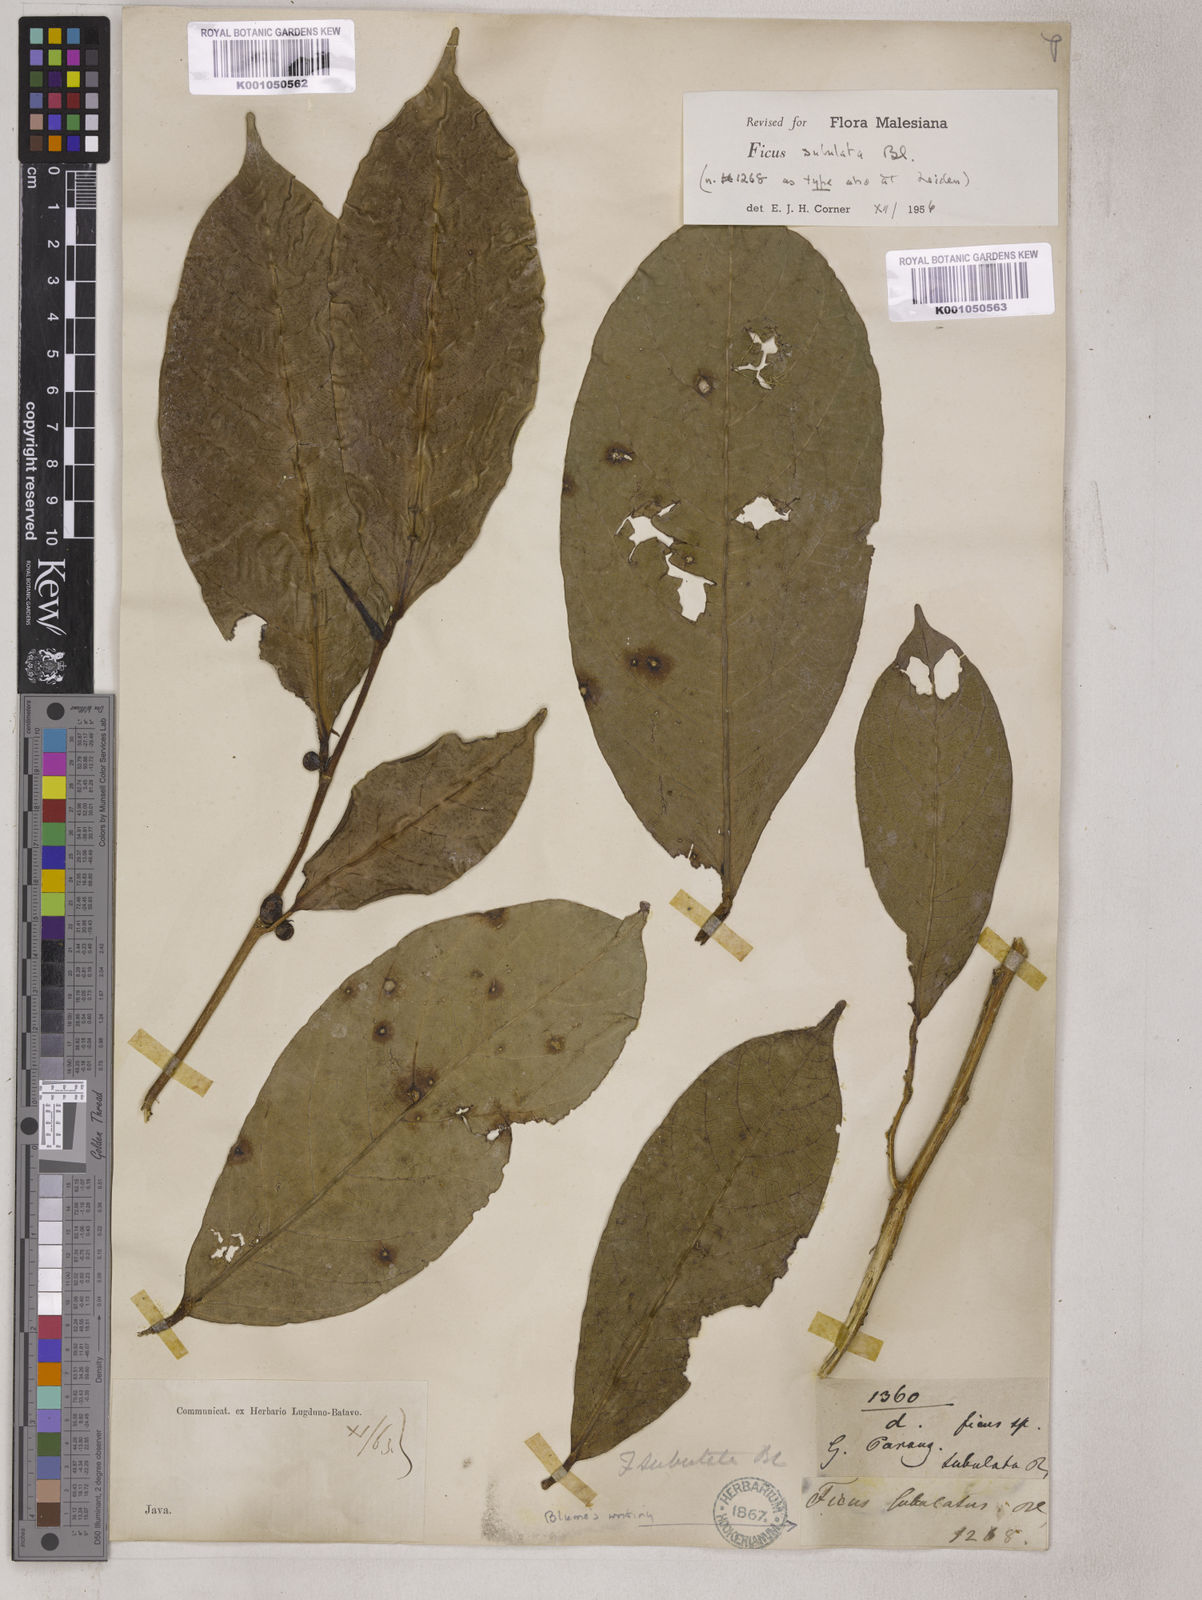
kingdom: Plantae
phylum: Tracheophyta
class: Magnoliopsida
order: Rosales
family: Moraceae
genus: Ficus
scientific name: Ficus subulata
